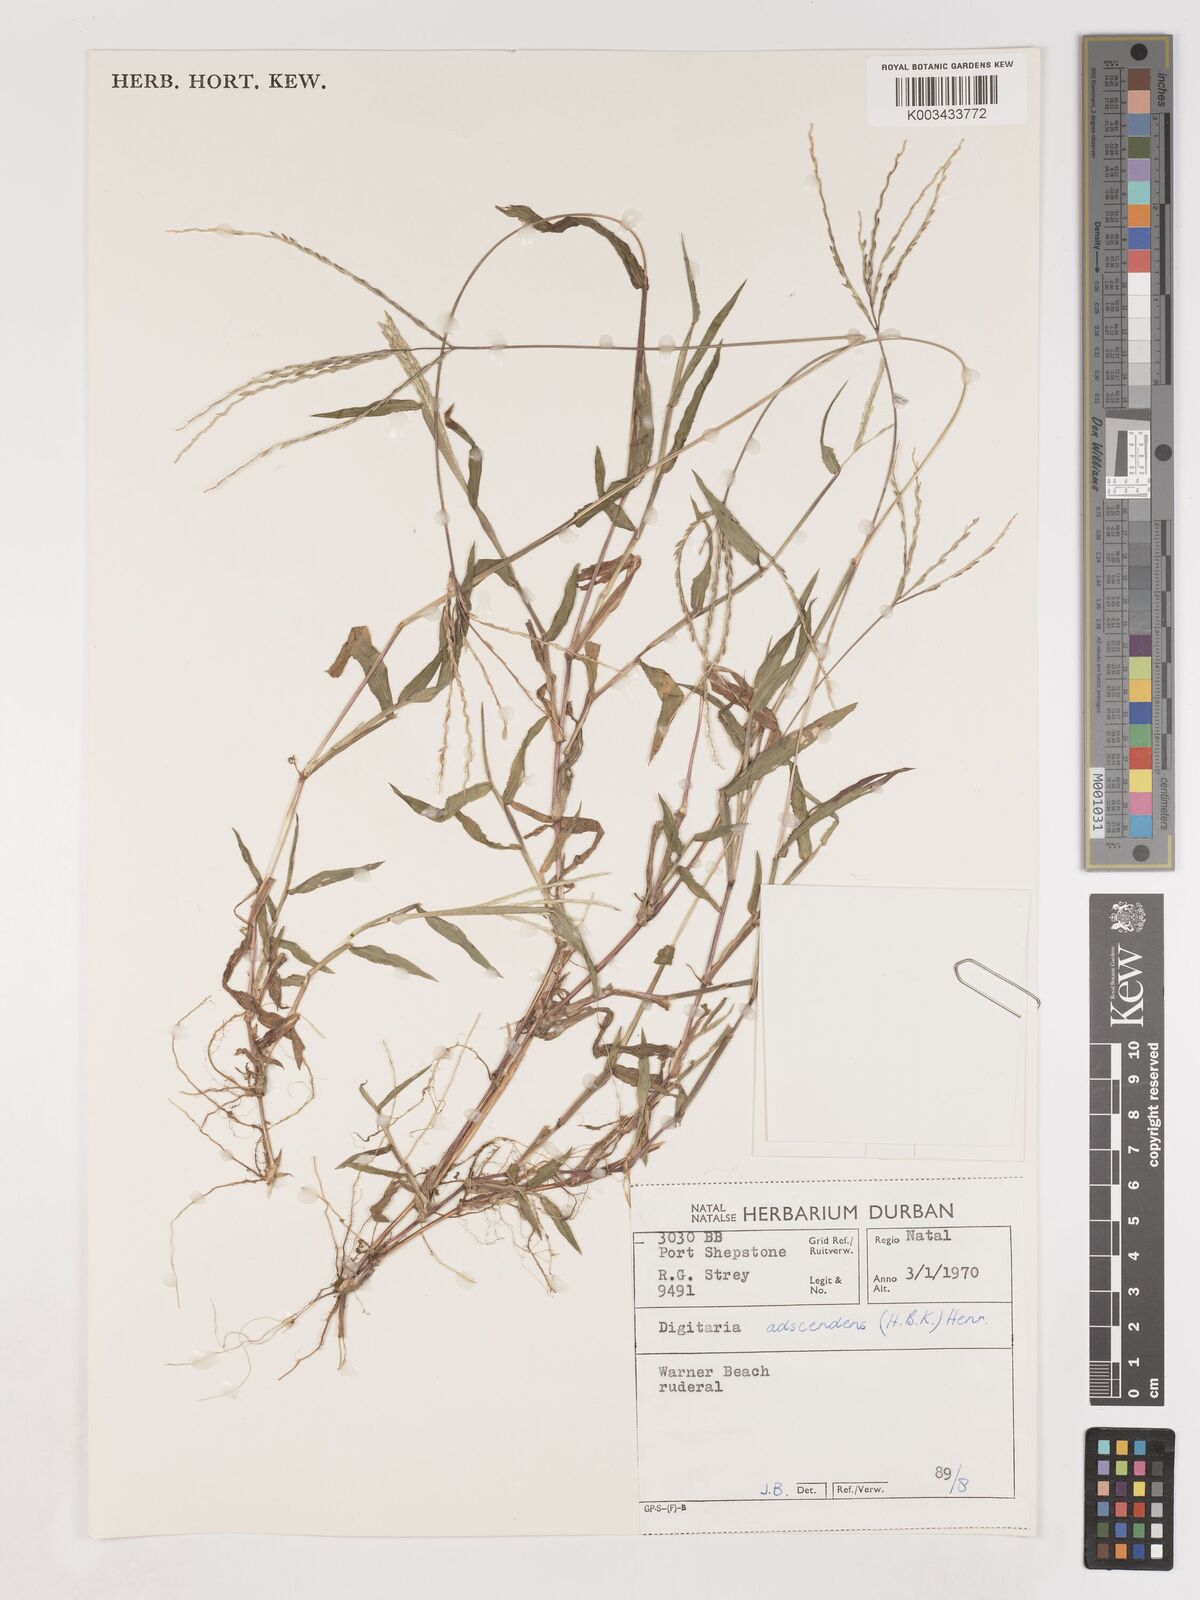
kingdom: Plantae
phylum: Tracheophyta
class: Liliopsida
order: Poales
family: Poaceae
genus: Digitaria
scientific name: Digitaria ciliaris
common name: Tropical finger-grass
